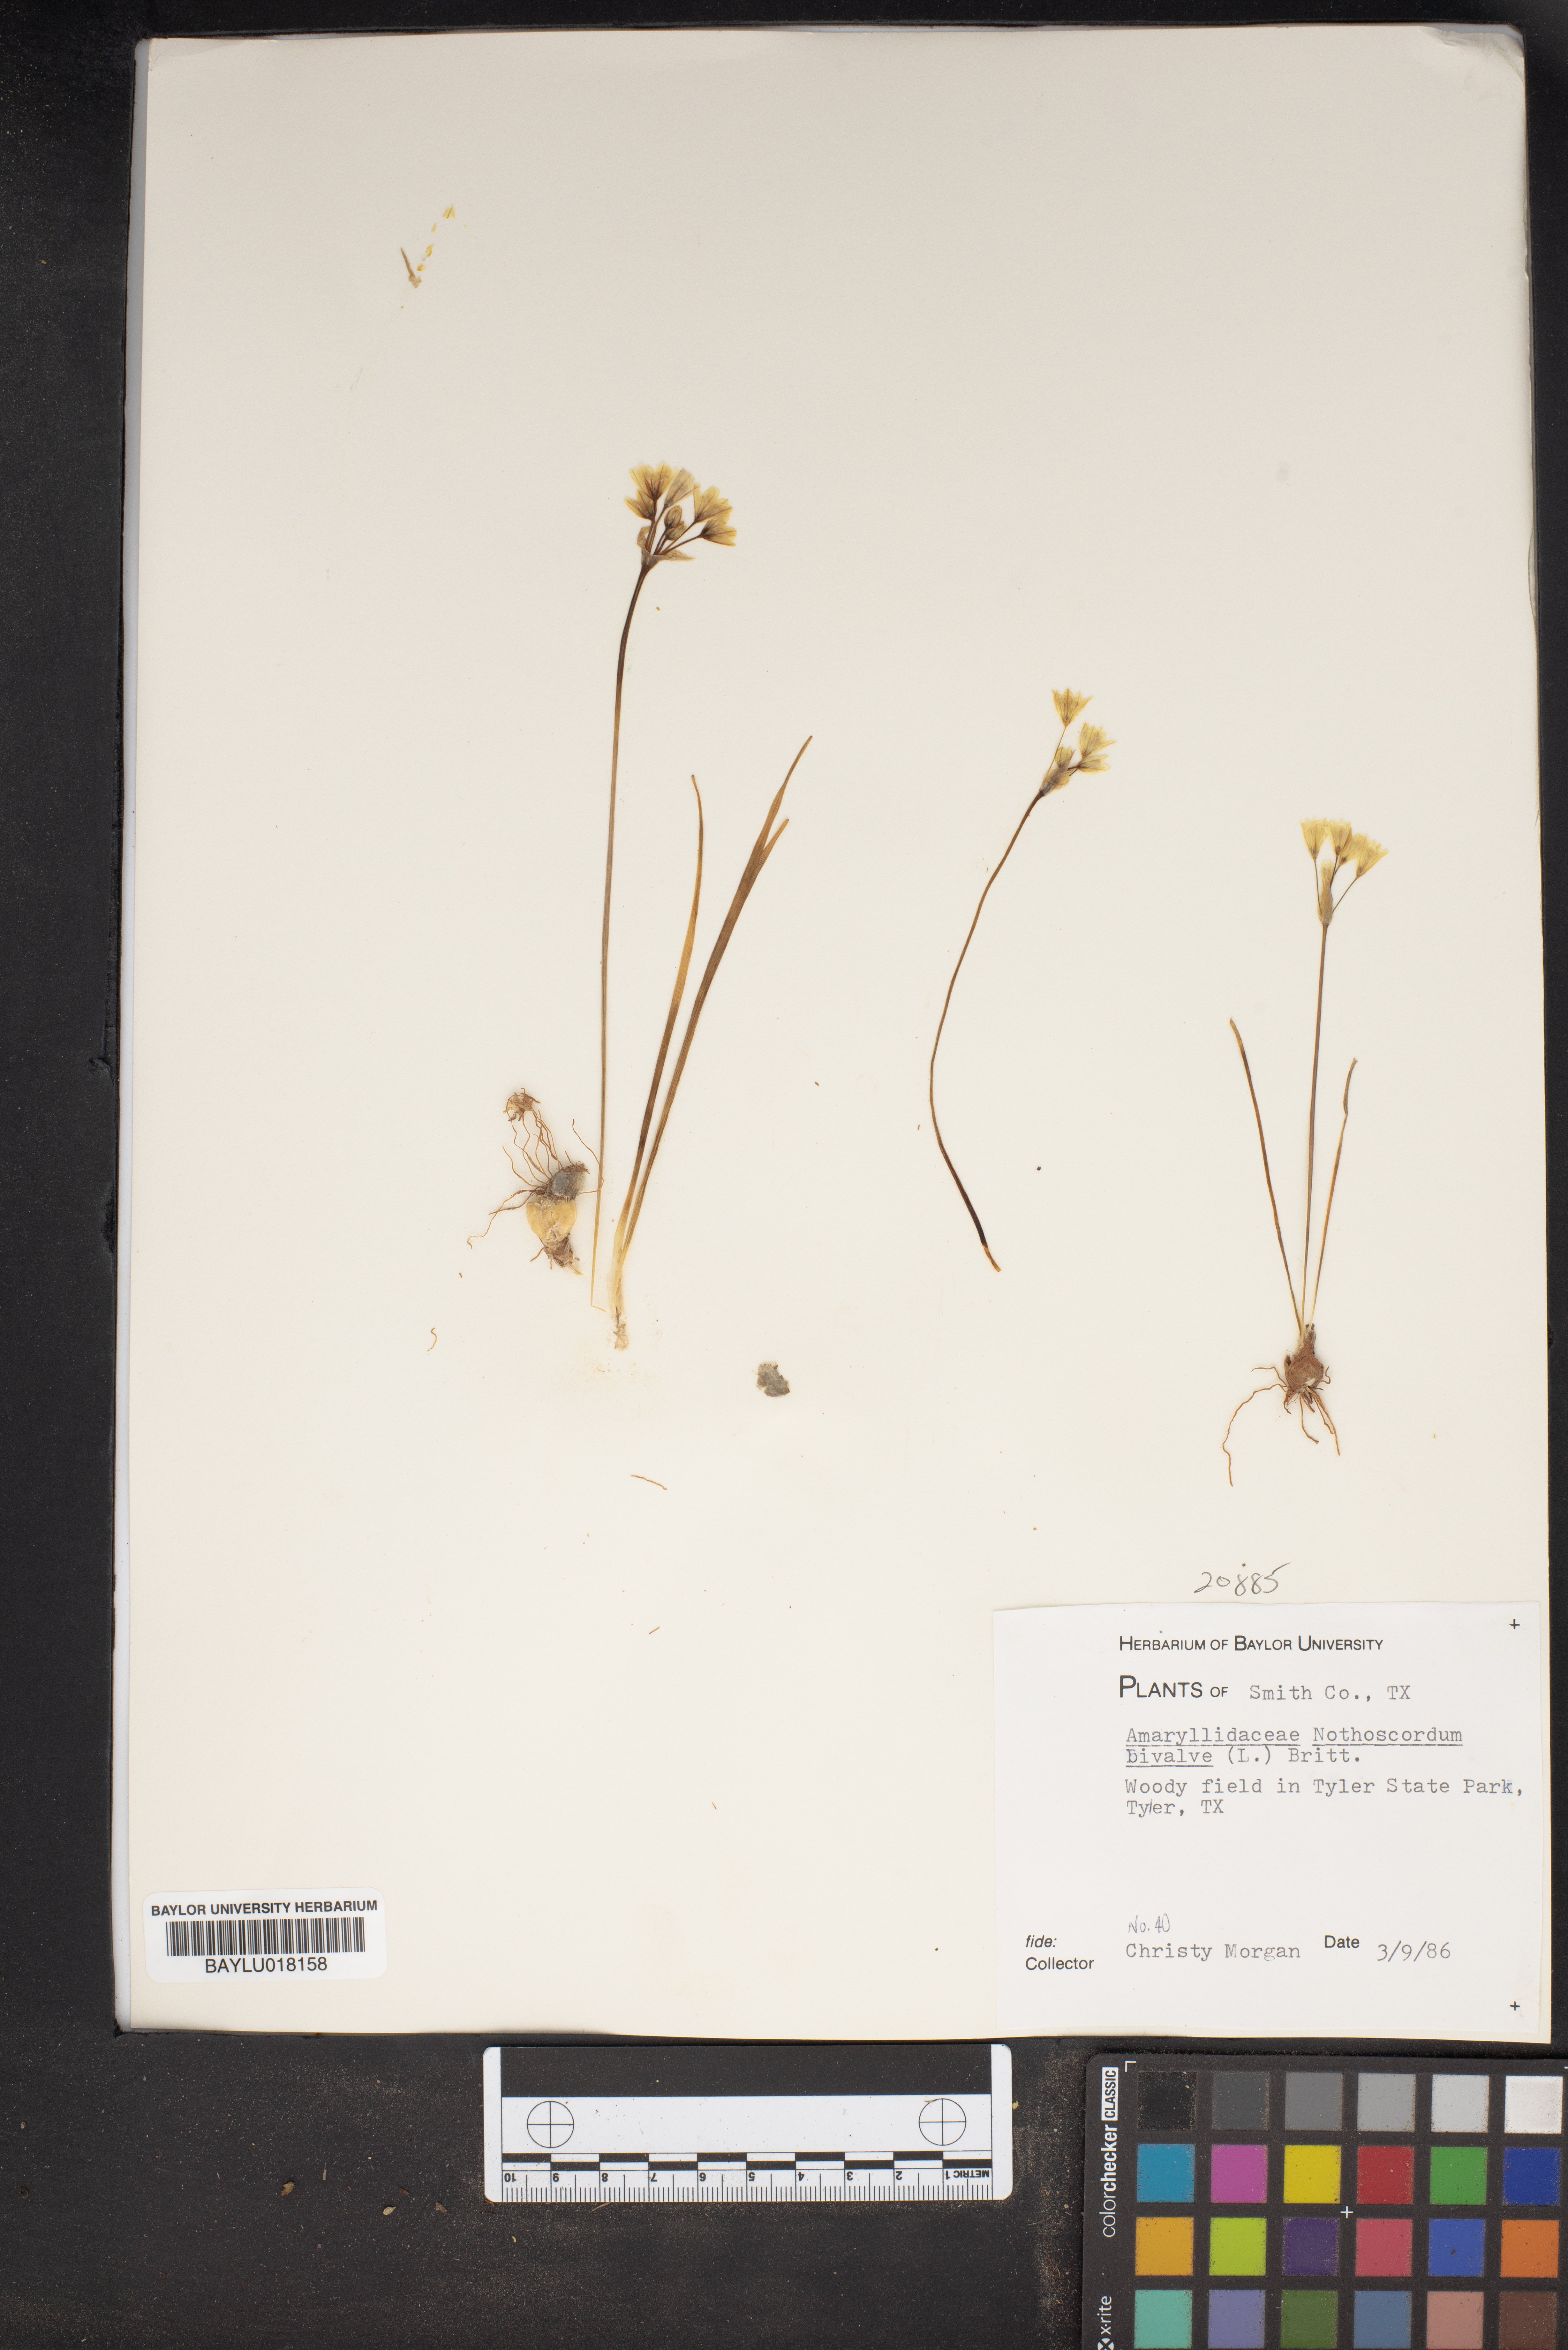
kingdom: Plantae
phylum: Tracheophyta
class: Liliopsida
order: Asparagales
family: Amaryllidaceae
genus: Nothoscordum
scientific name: Nothoscordum bivalve
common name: Crow-poison
